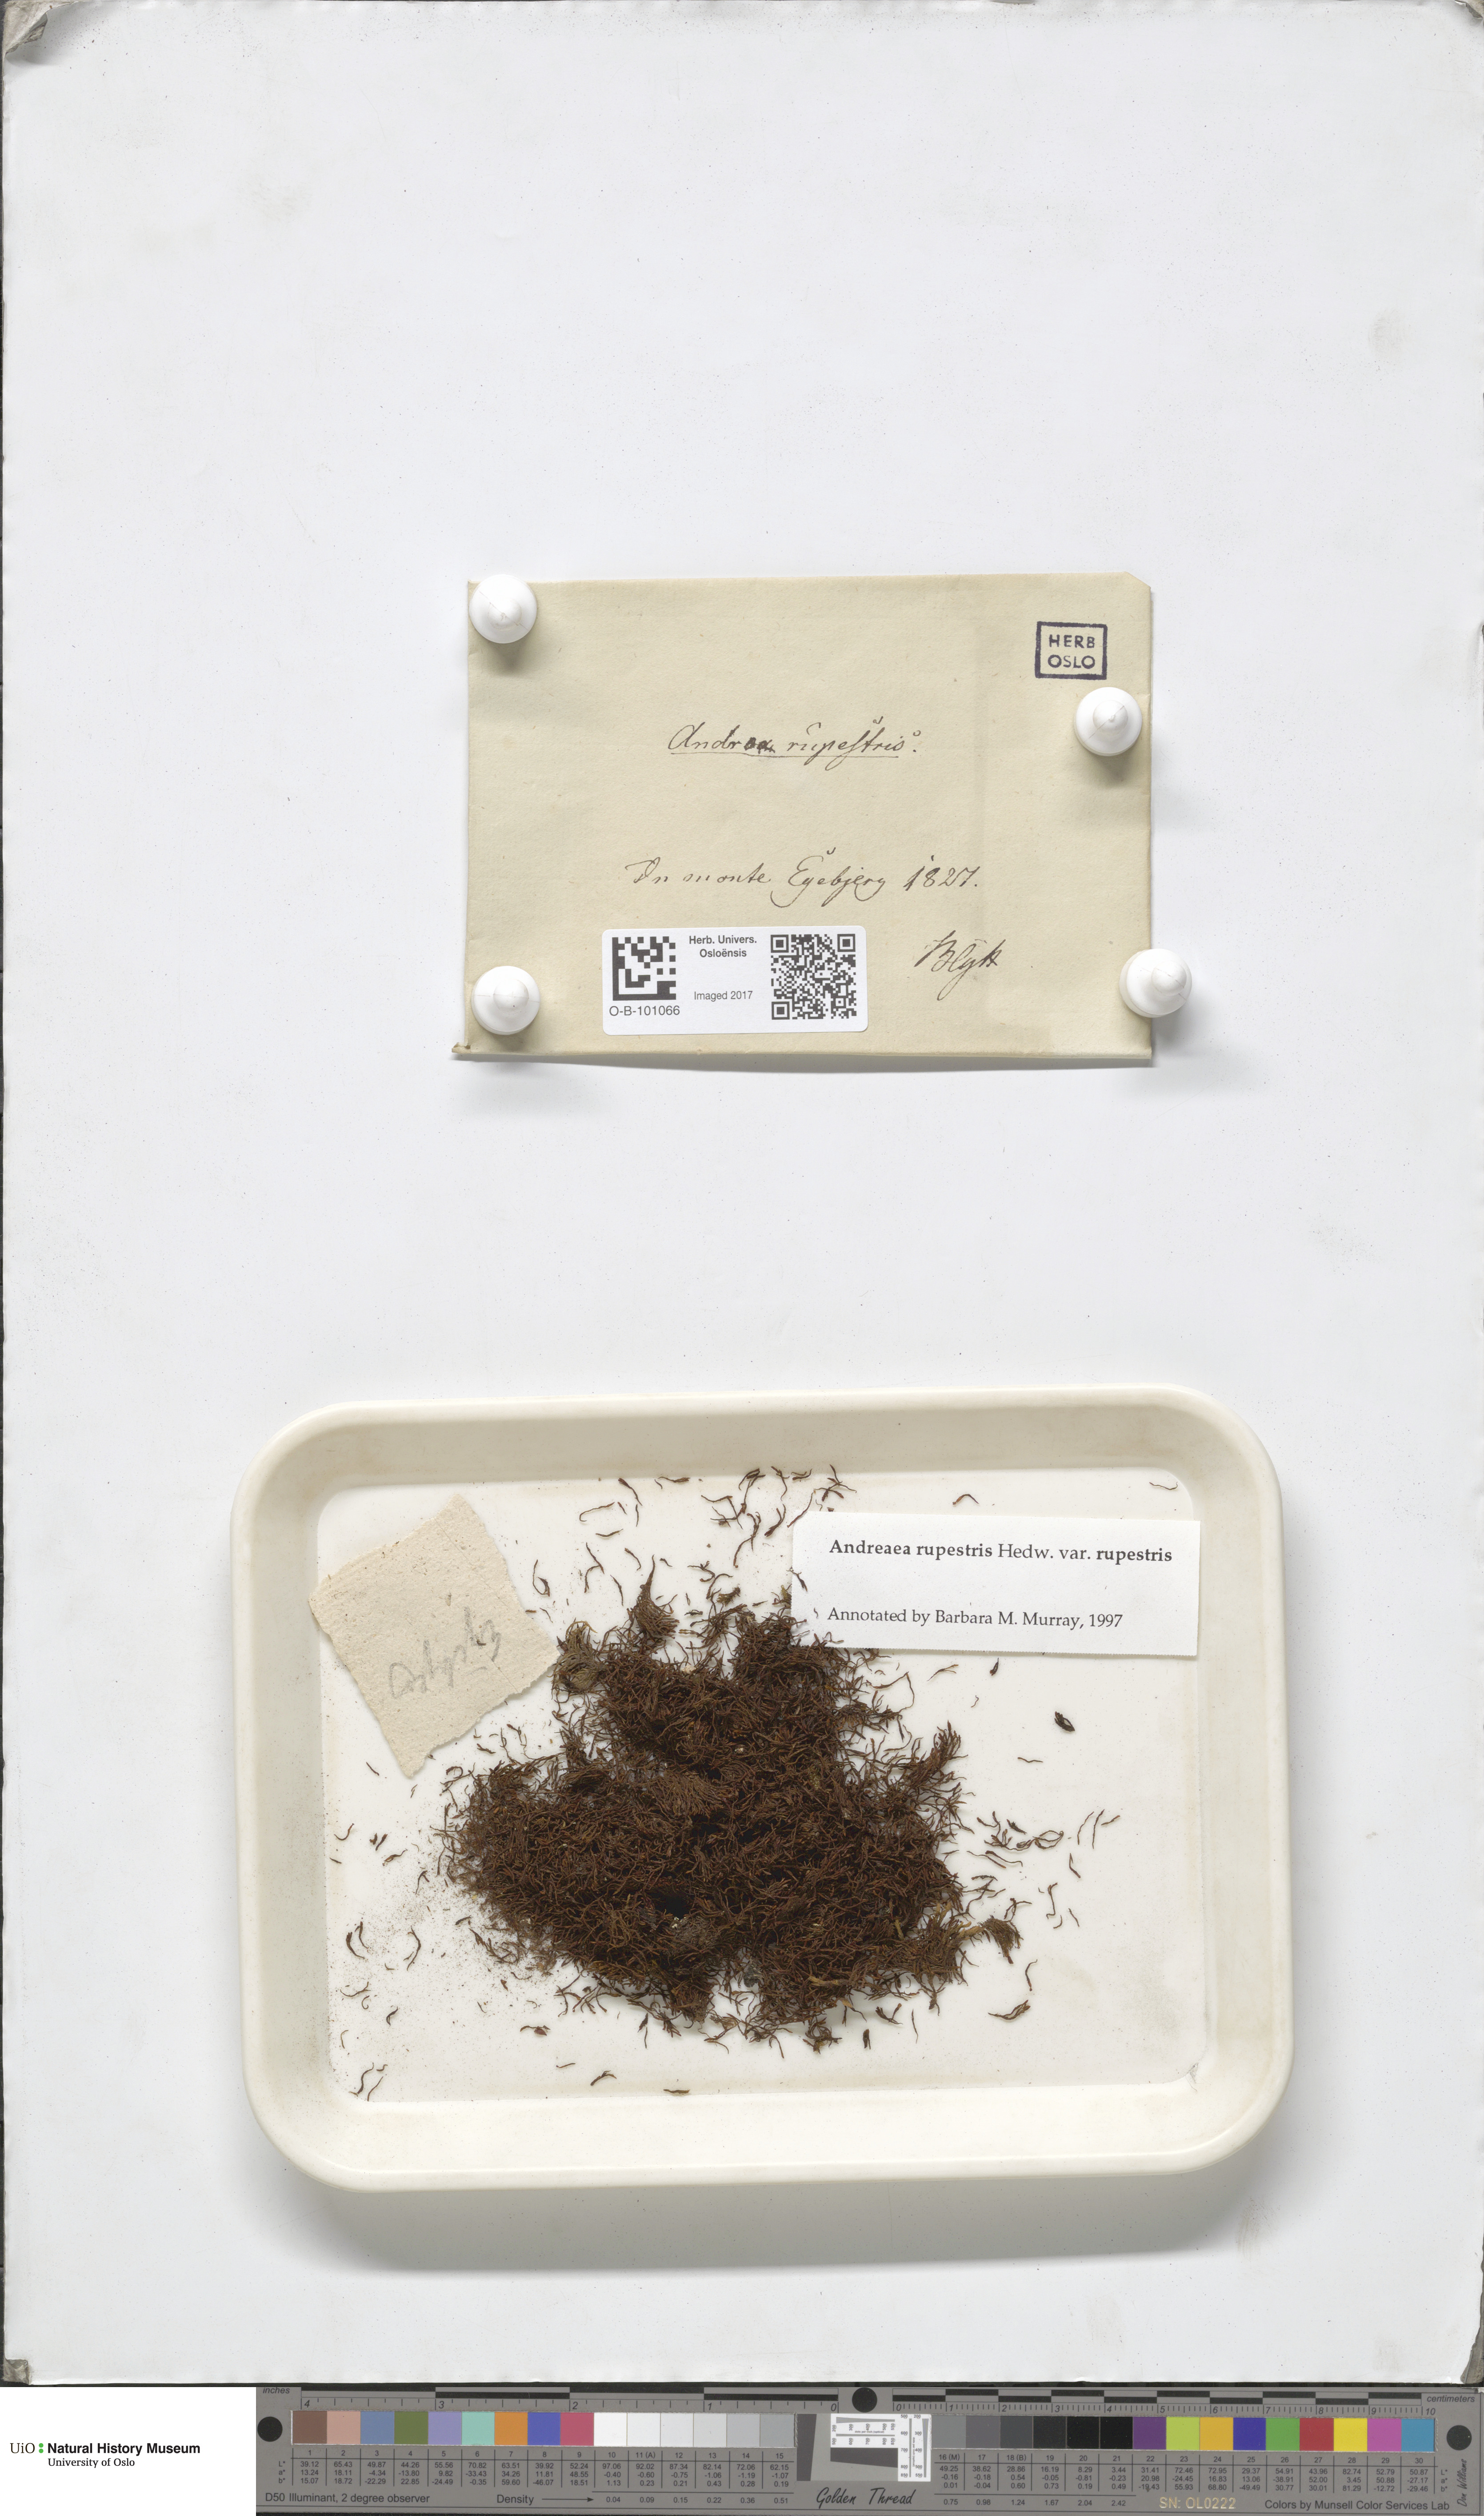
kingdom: Plantae
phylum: Bryophyta
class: Andreaeopsida
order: Andreaeales
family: Andreaeaceae
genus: Andreaea
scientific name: Andreaea rupestris
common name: Black rock moss
